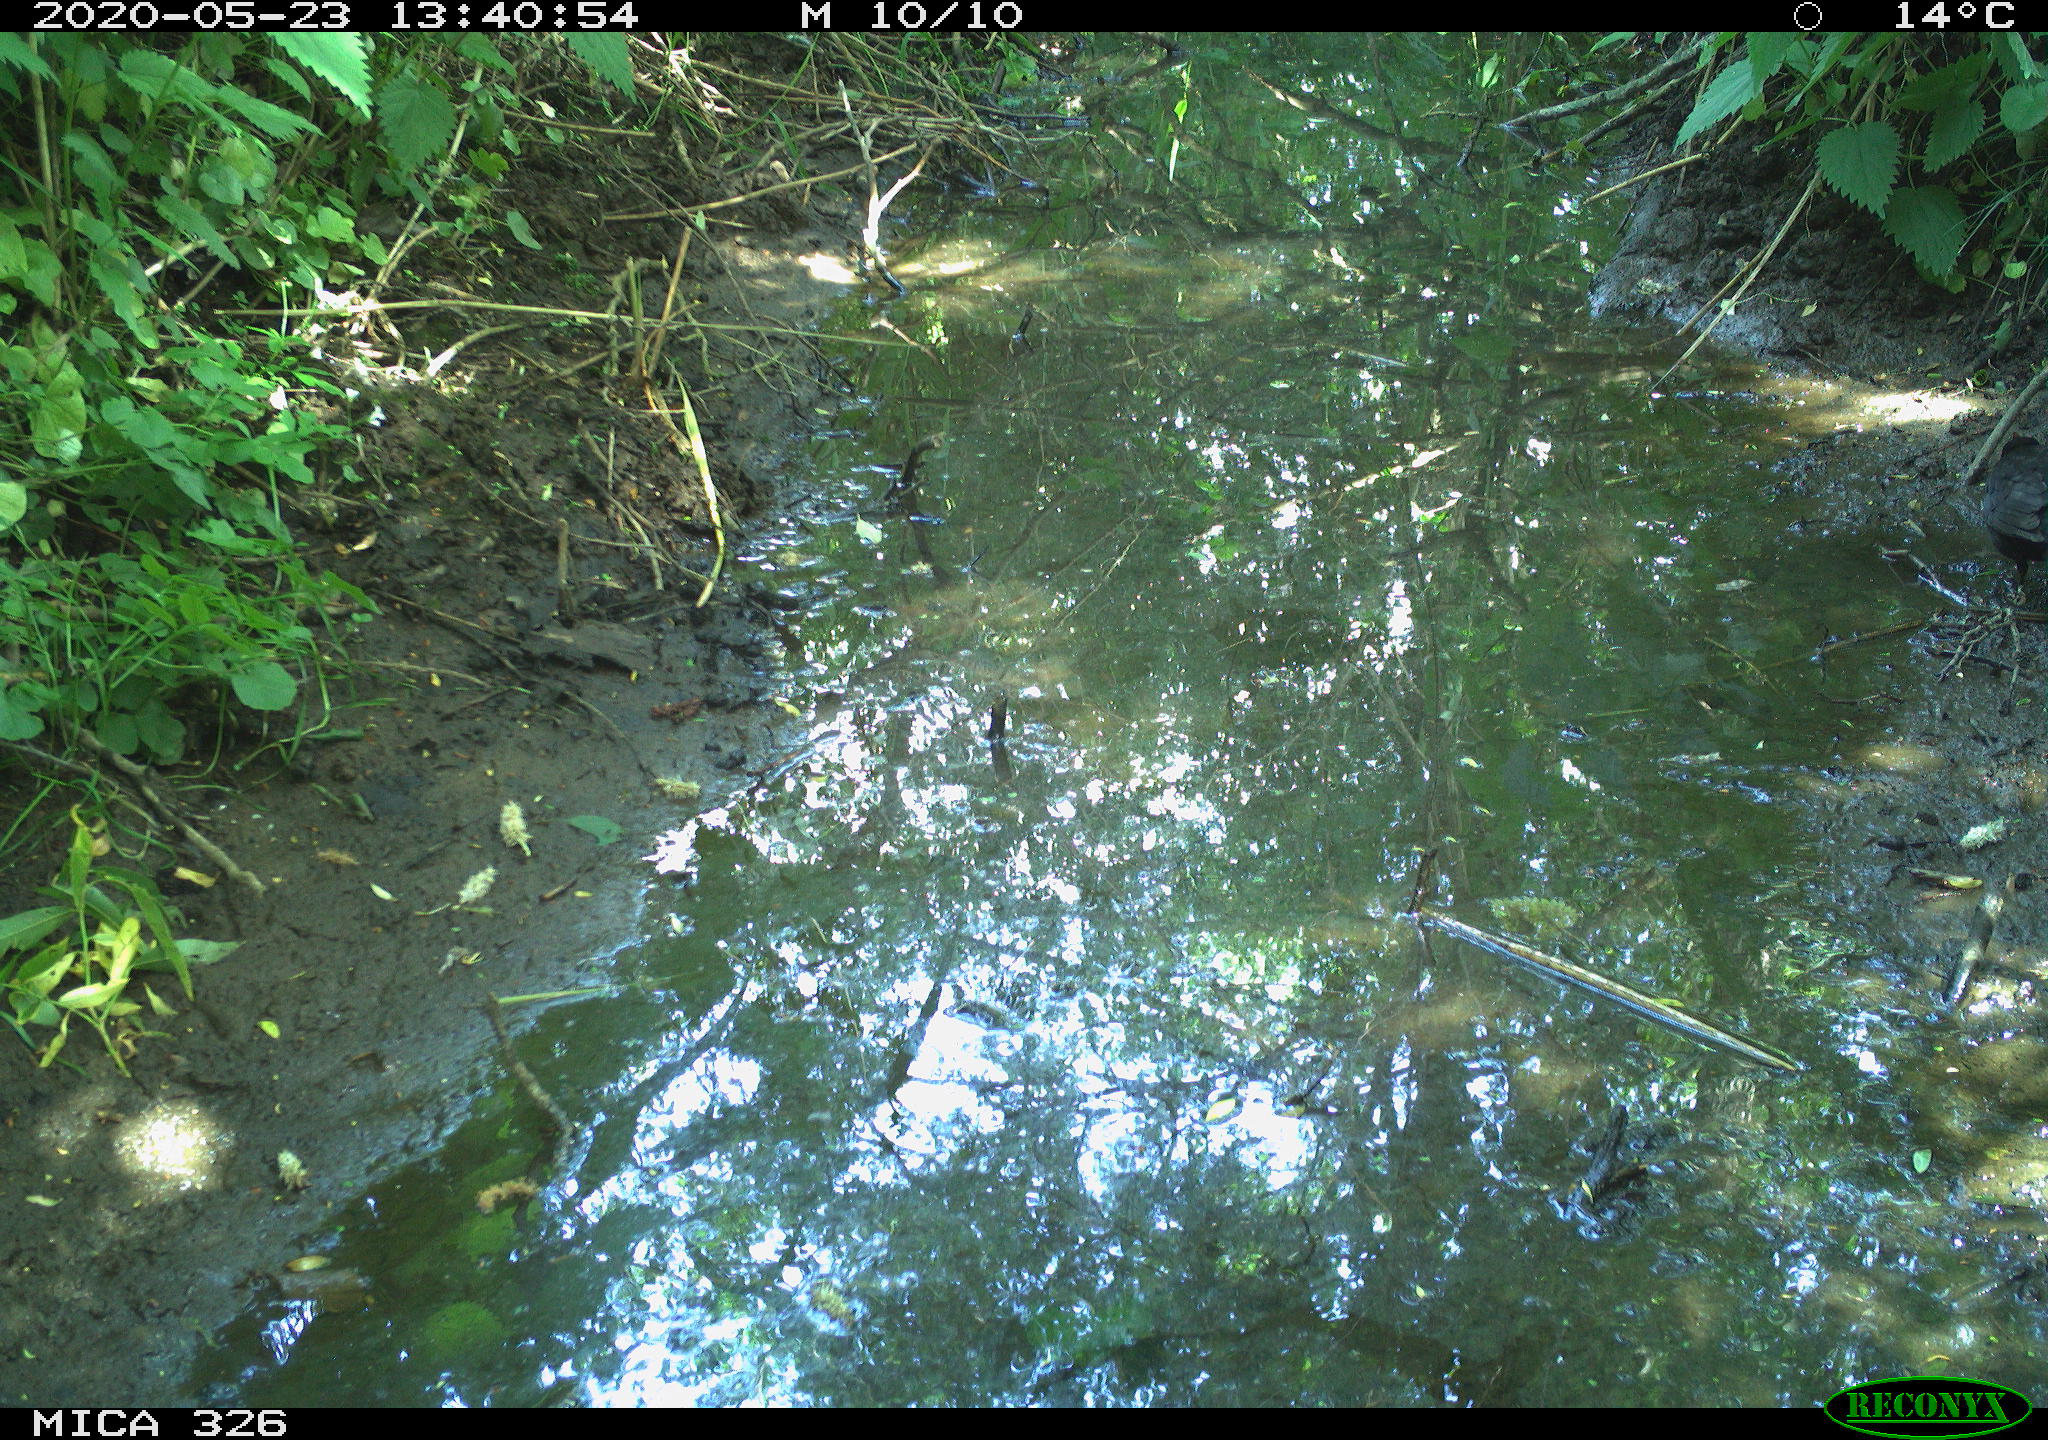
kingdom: Animalia
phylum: Chordata
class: Aves
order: Passeriformes
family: Turdidae
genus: Turdus
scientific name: Turdus merula
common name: Common blackbird
